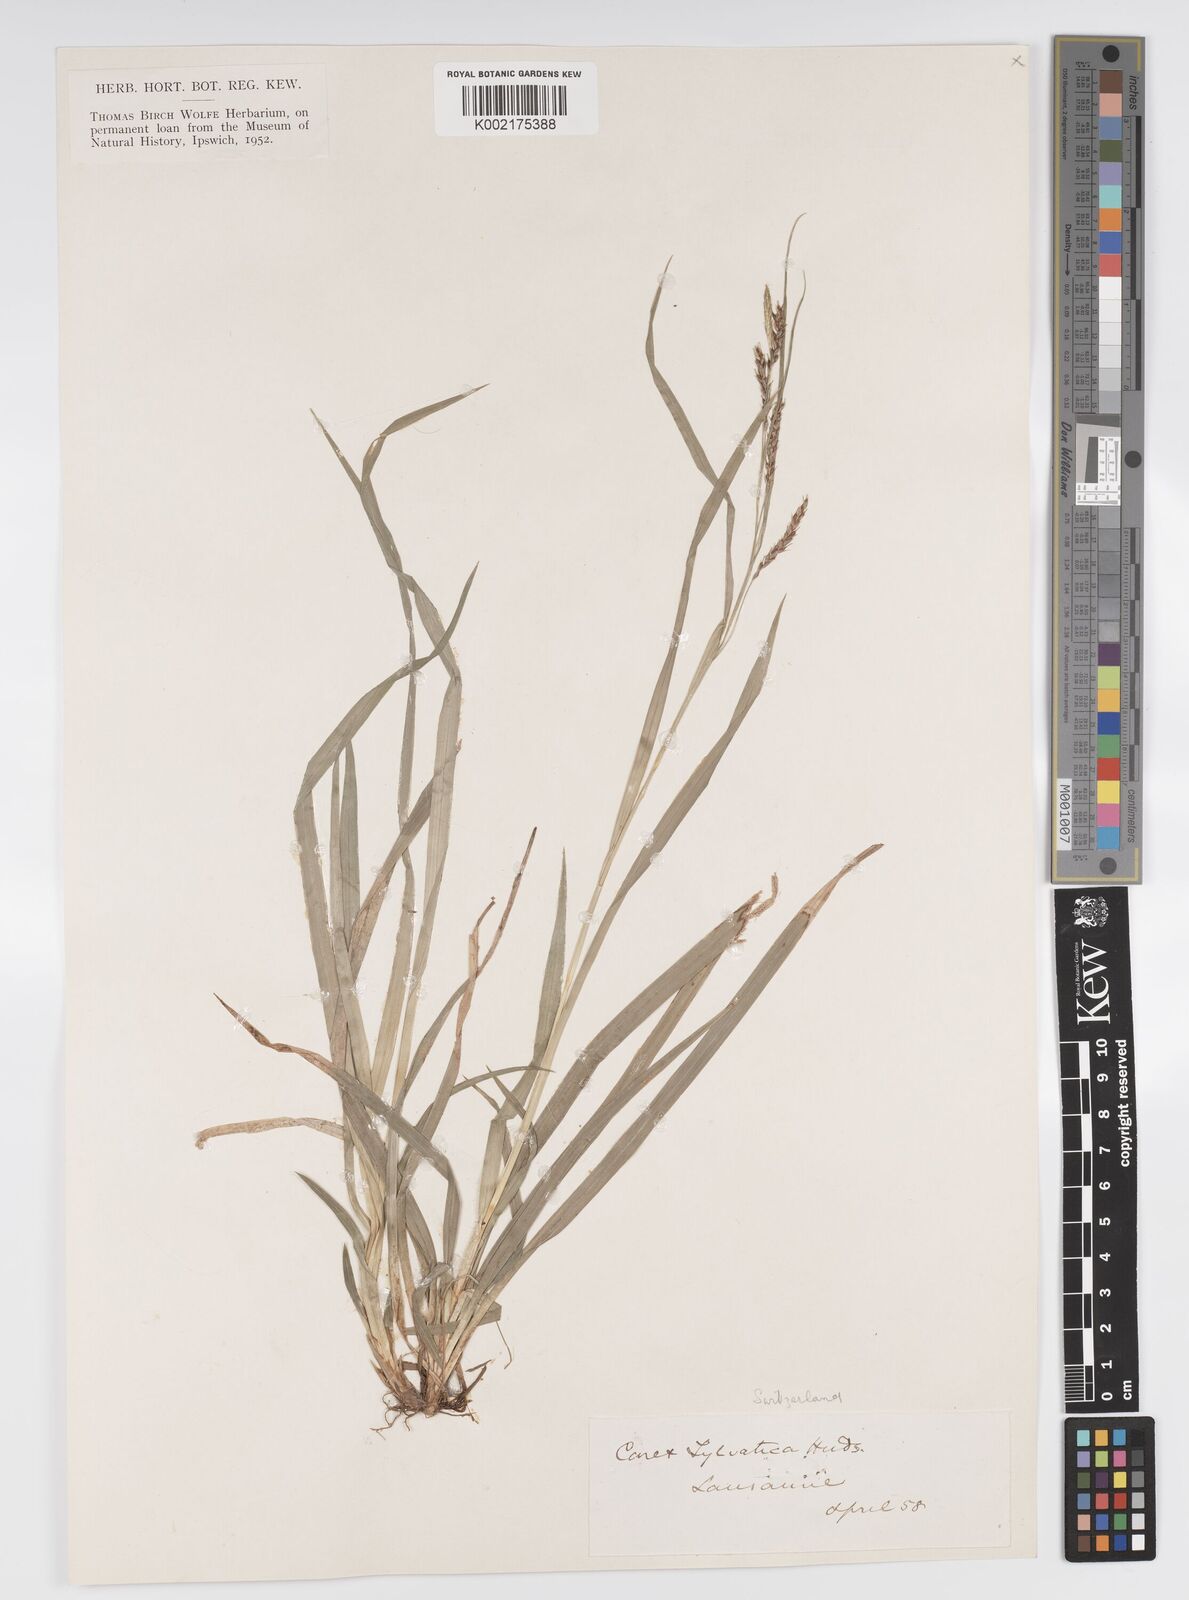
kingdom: Plantae
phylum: Tracheophyta
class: Liliopsida
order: Poales
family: Cyperaceae
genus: Carex
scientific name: Carex sylvatica
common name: Wood-sedge
